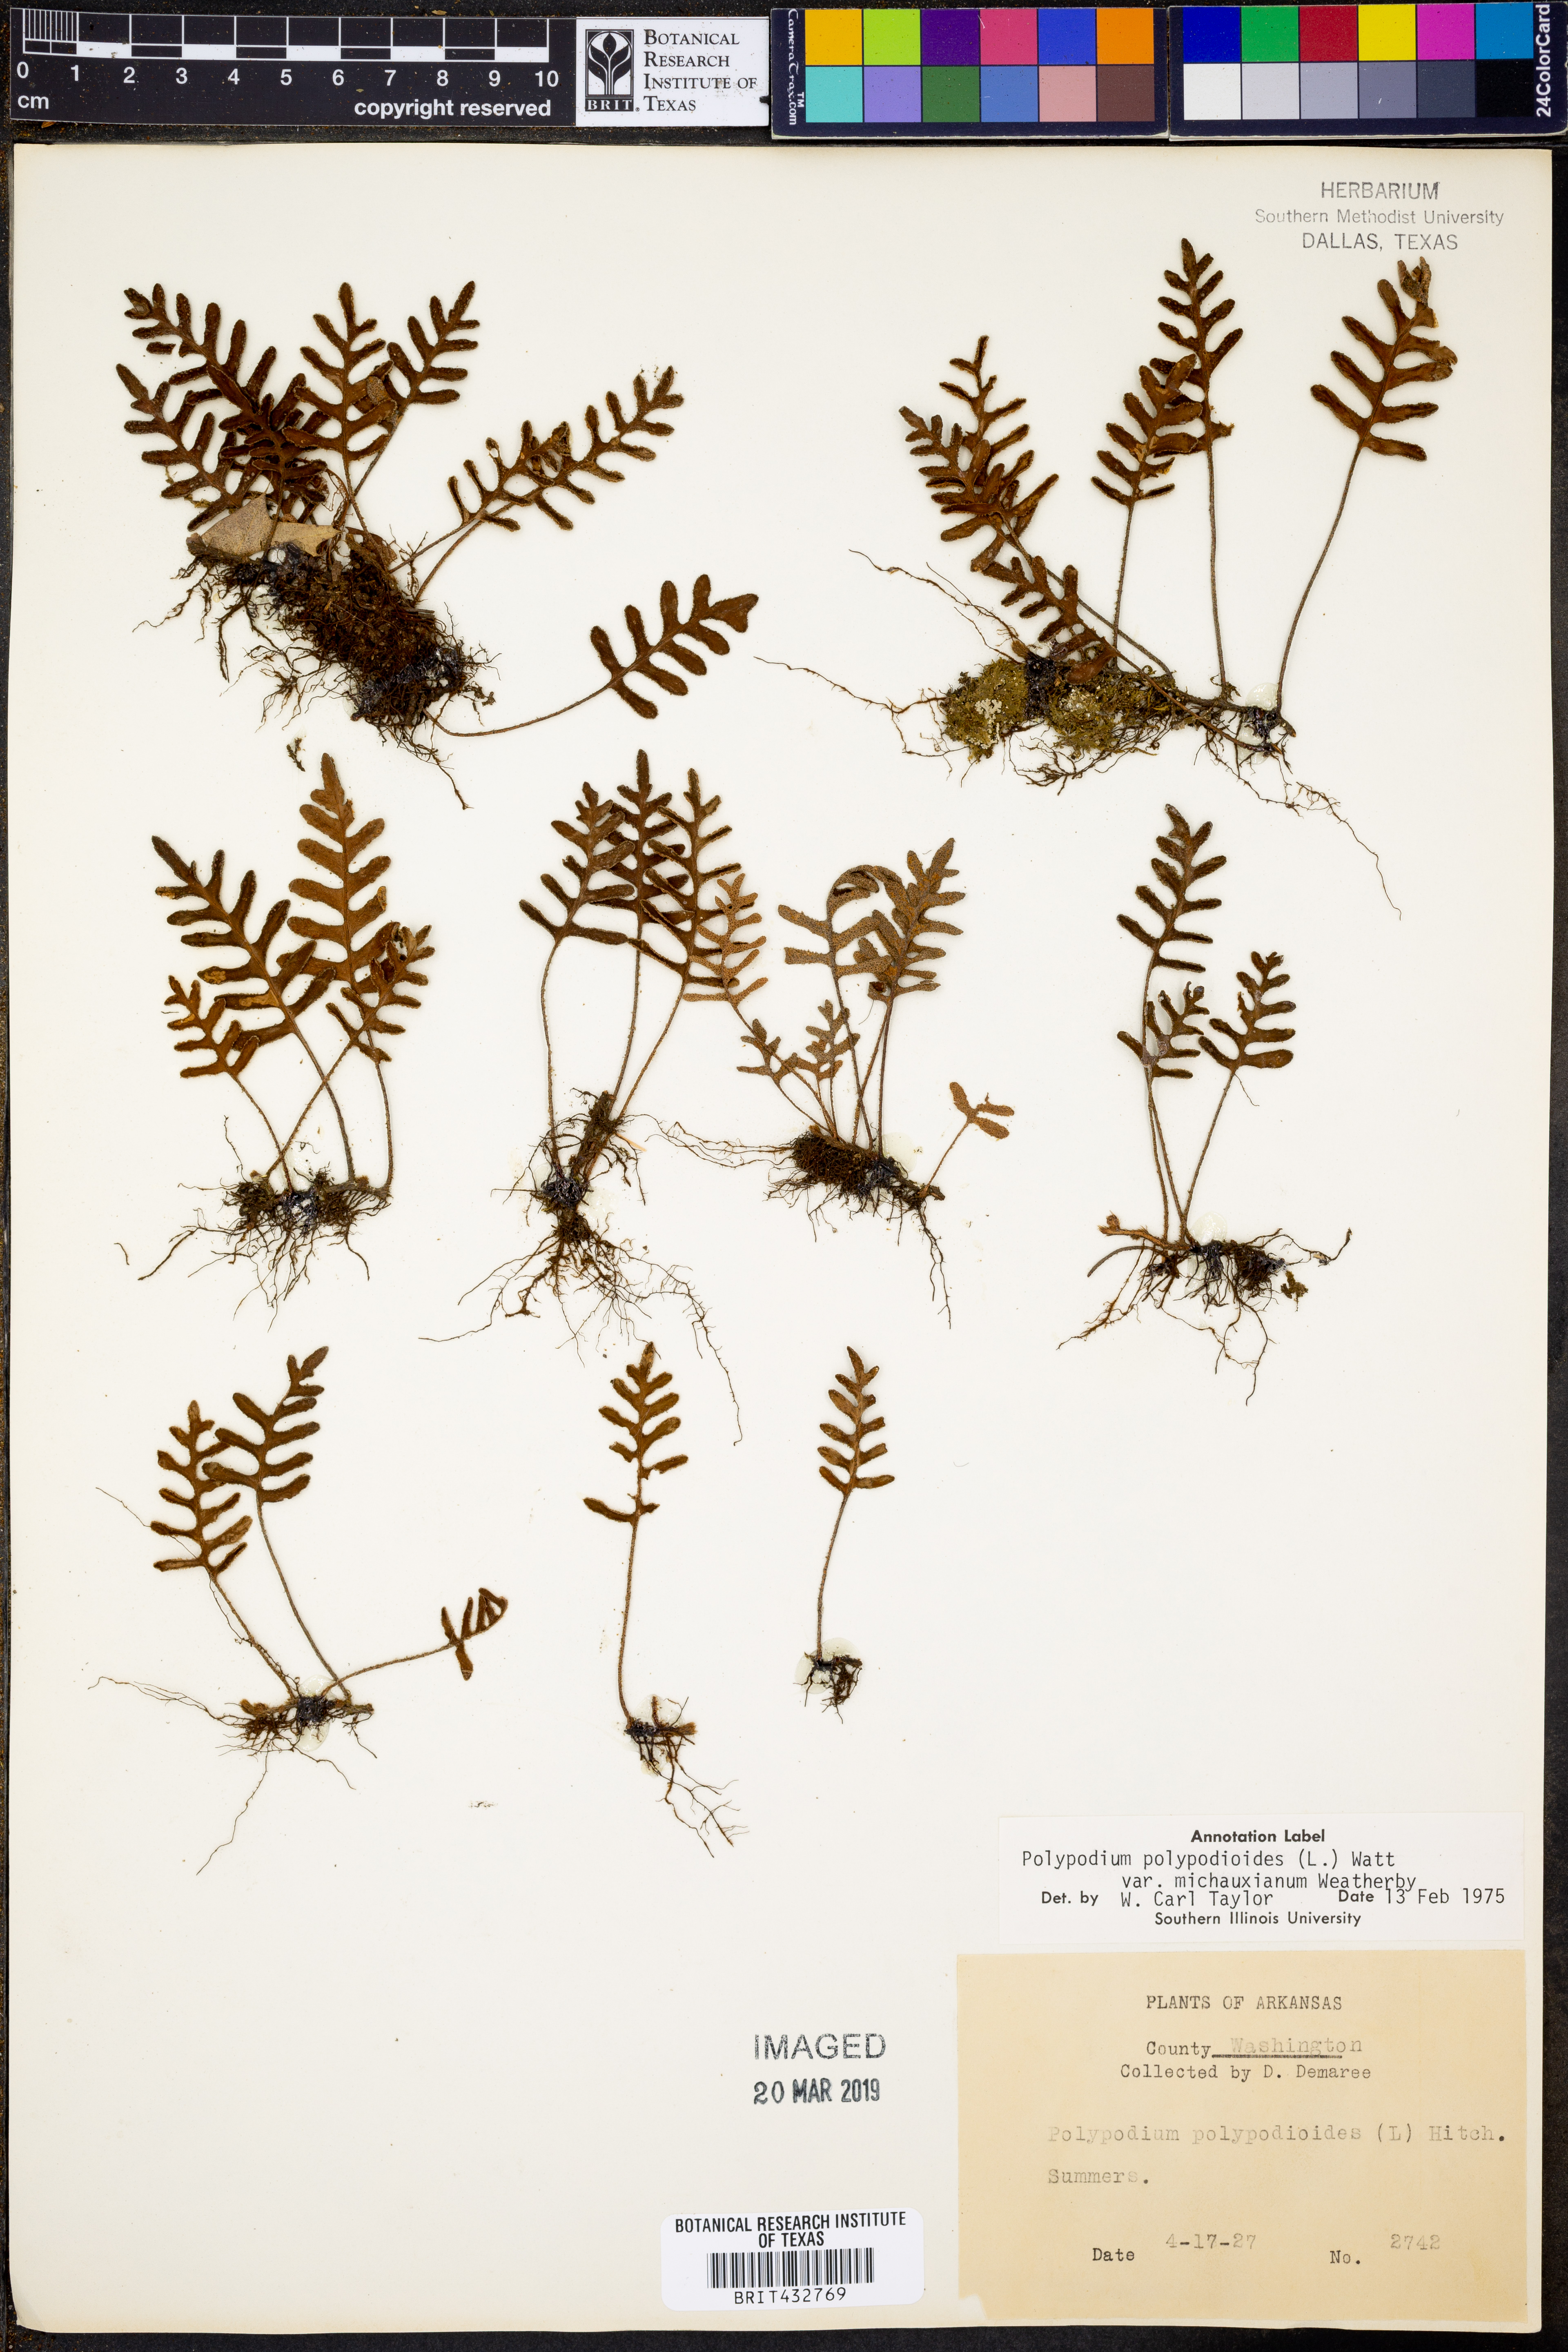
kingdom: Plantae
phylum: Tracheophyta
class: Polypodiopsida
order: Polypodiales
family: Polypodiaceae
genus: Pleopeltis
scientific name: Pleopeltis michauxiana
